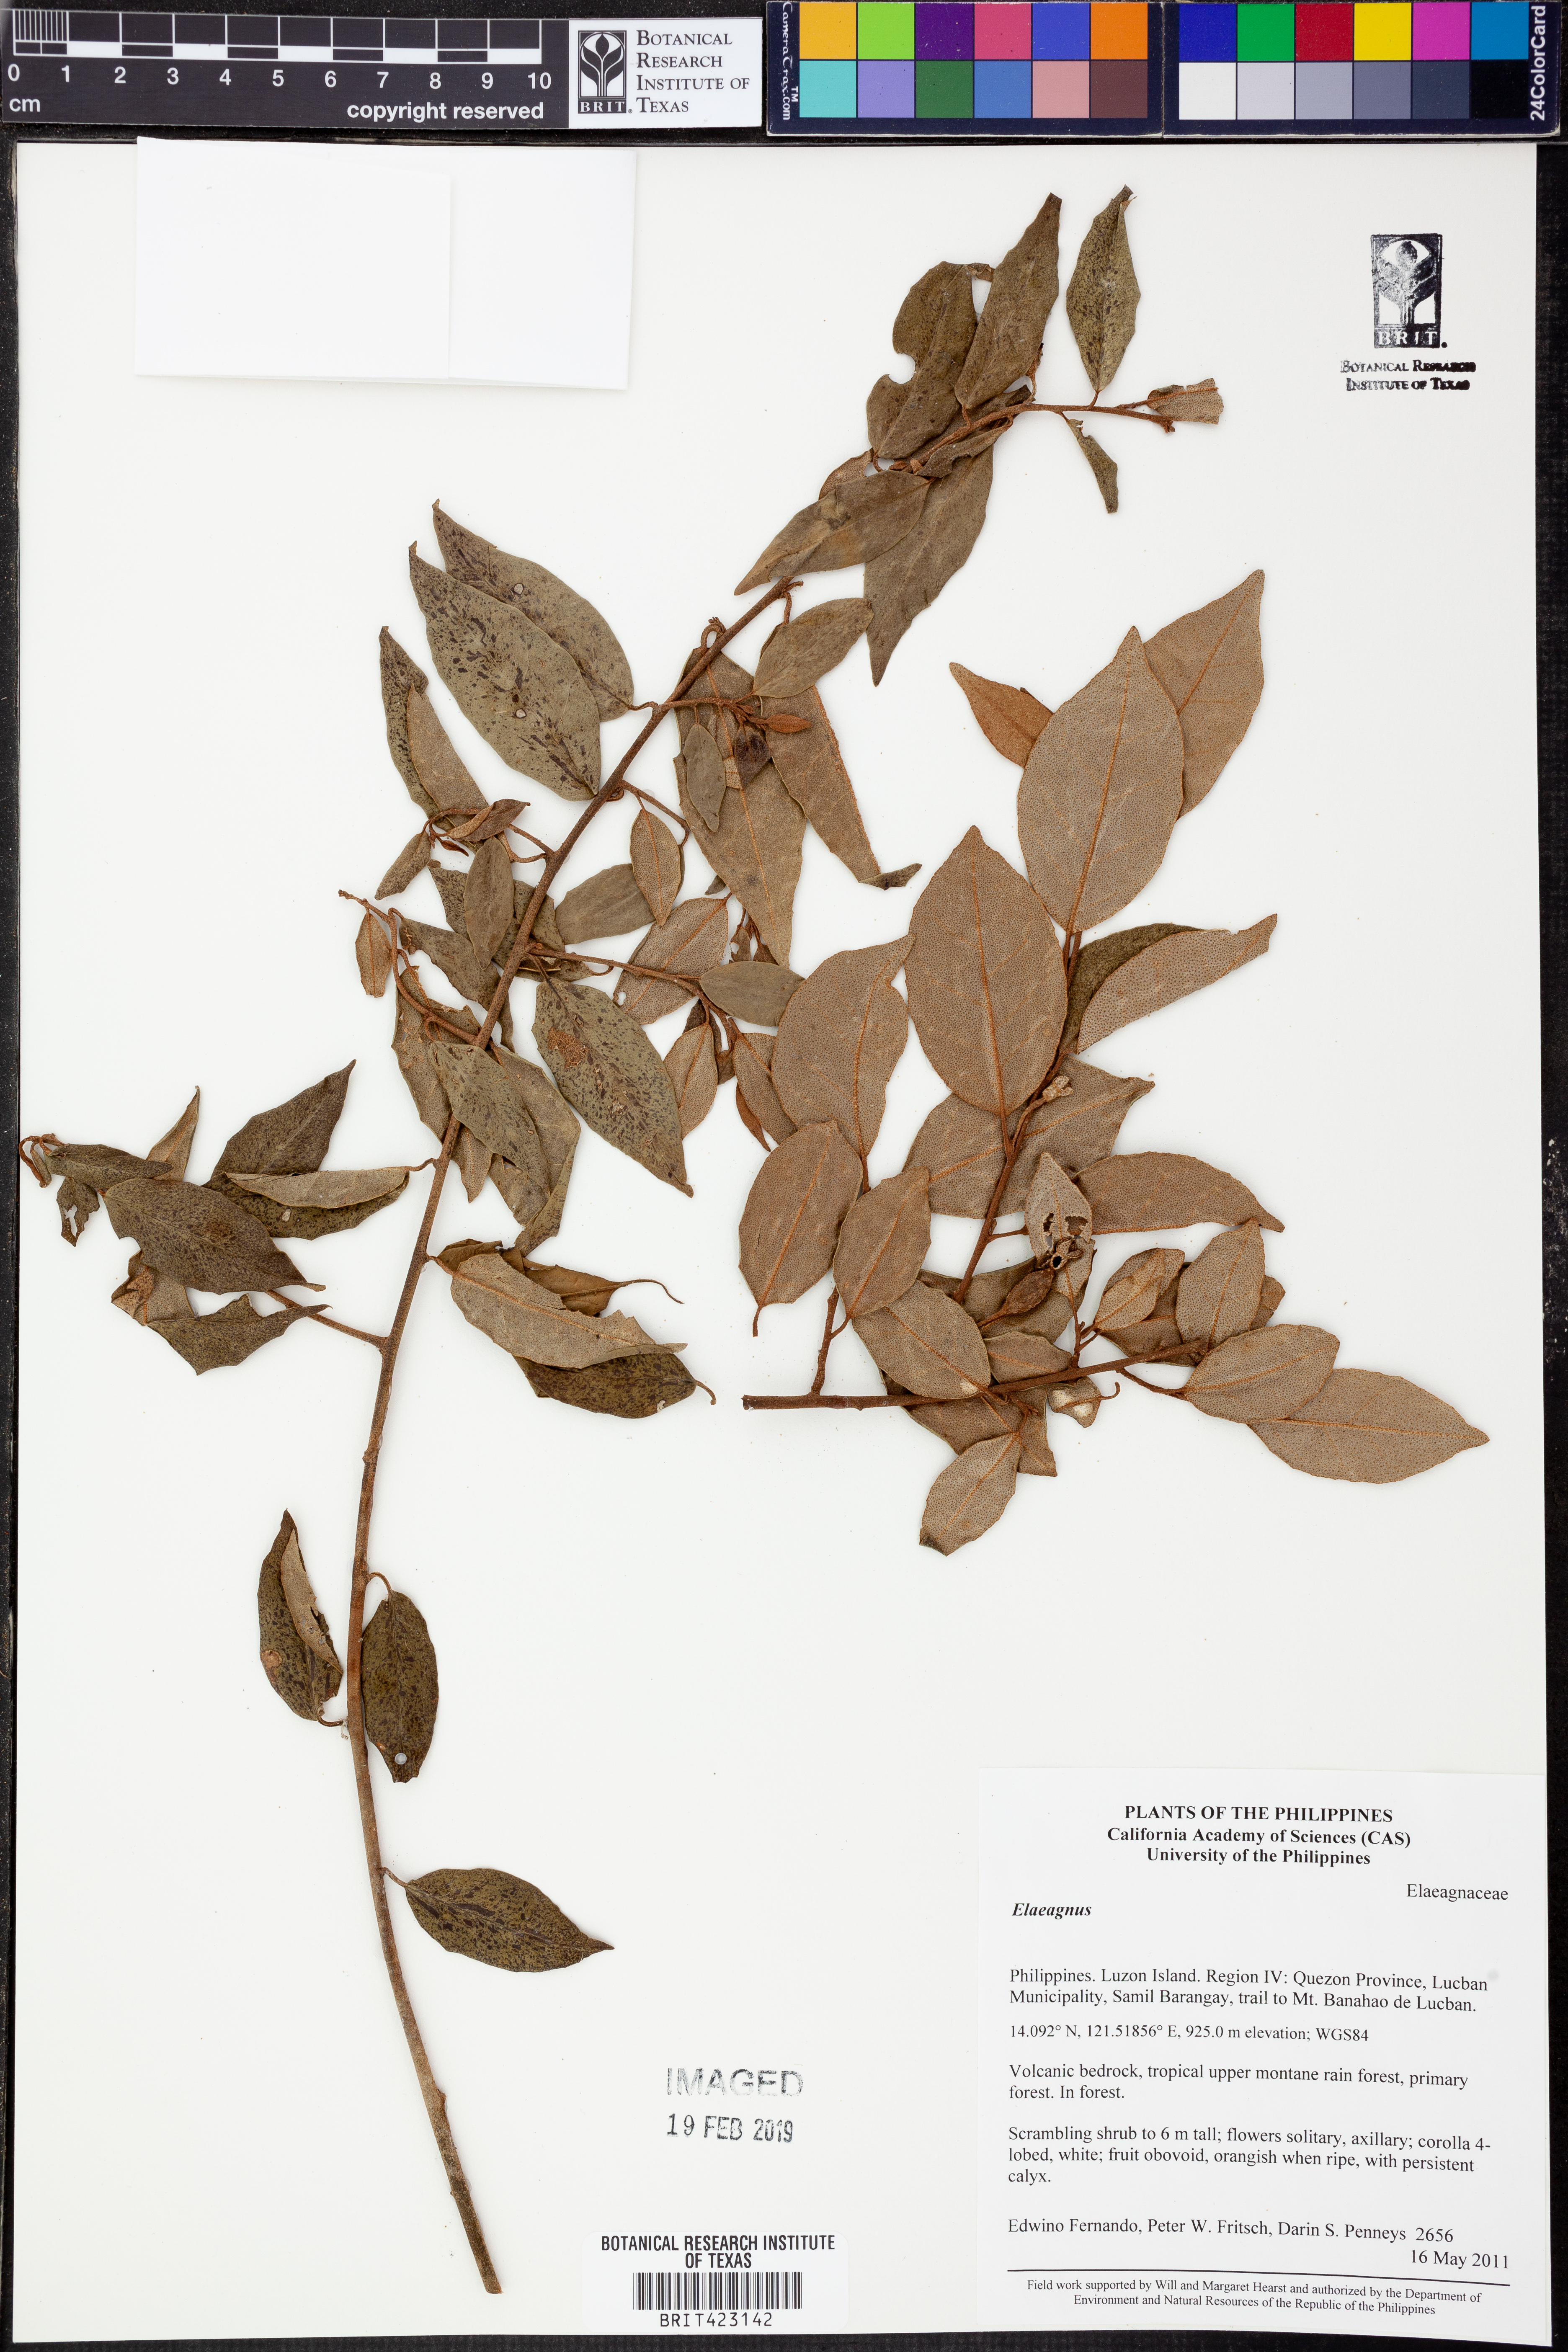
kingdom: Plantae
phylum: Tracheophyta
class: Magnoliopsida
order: Rosales
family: Elaeagnaceae
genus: Elaeagnus
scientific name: Elaeagnus
